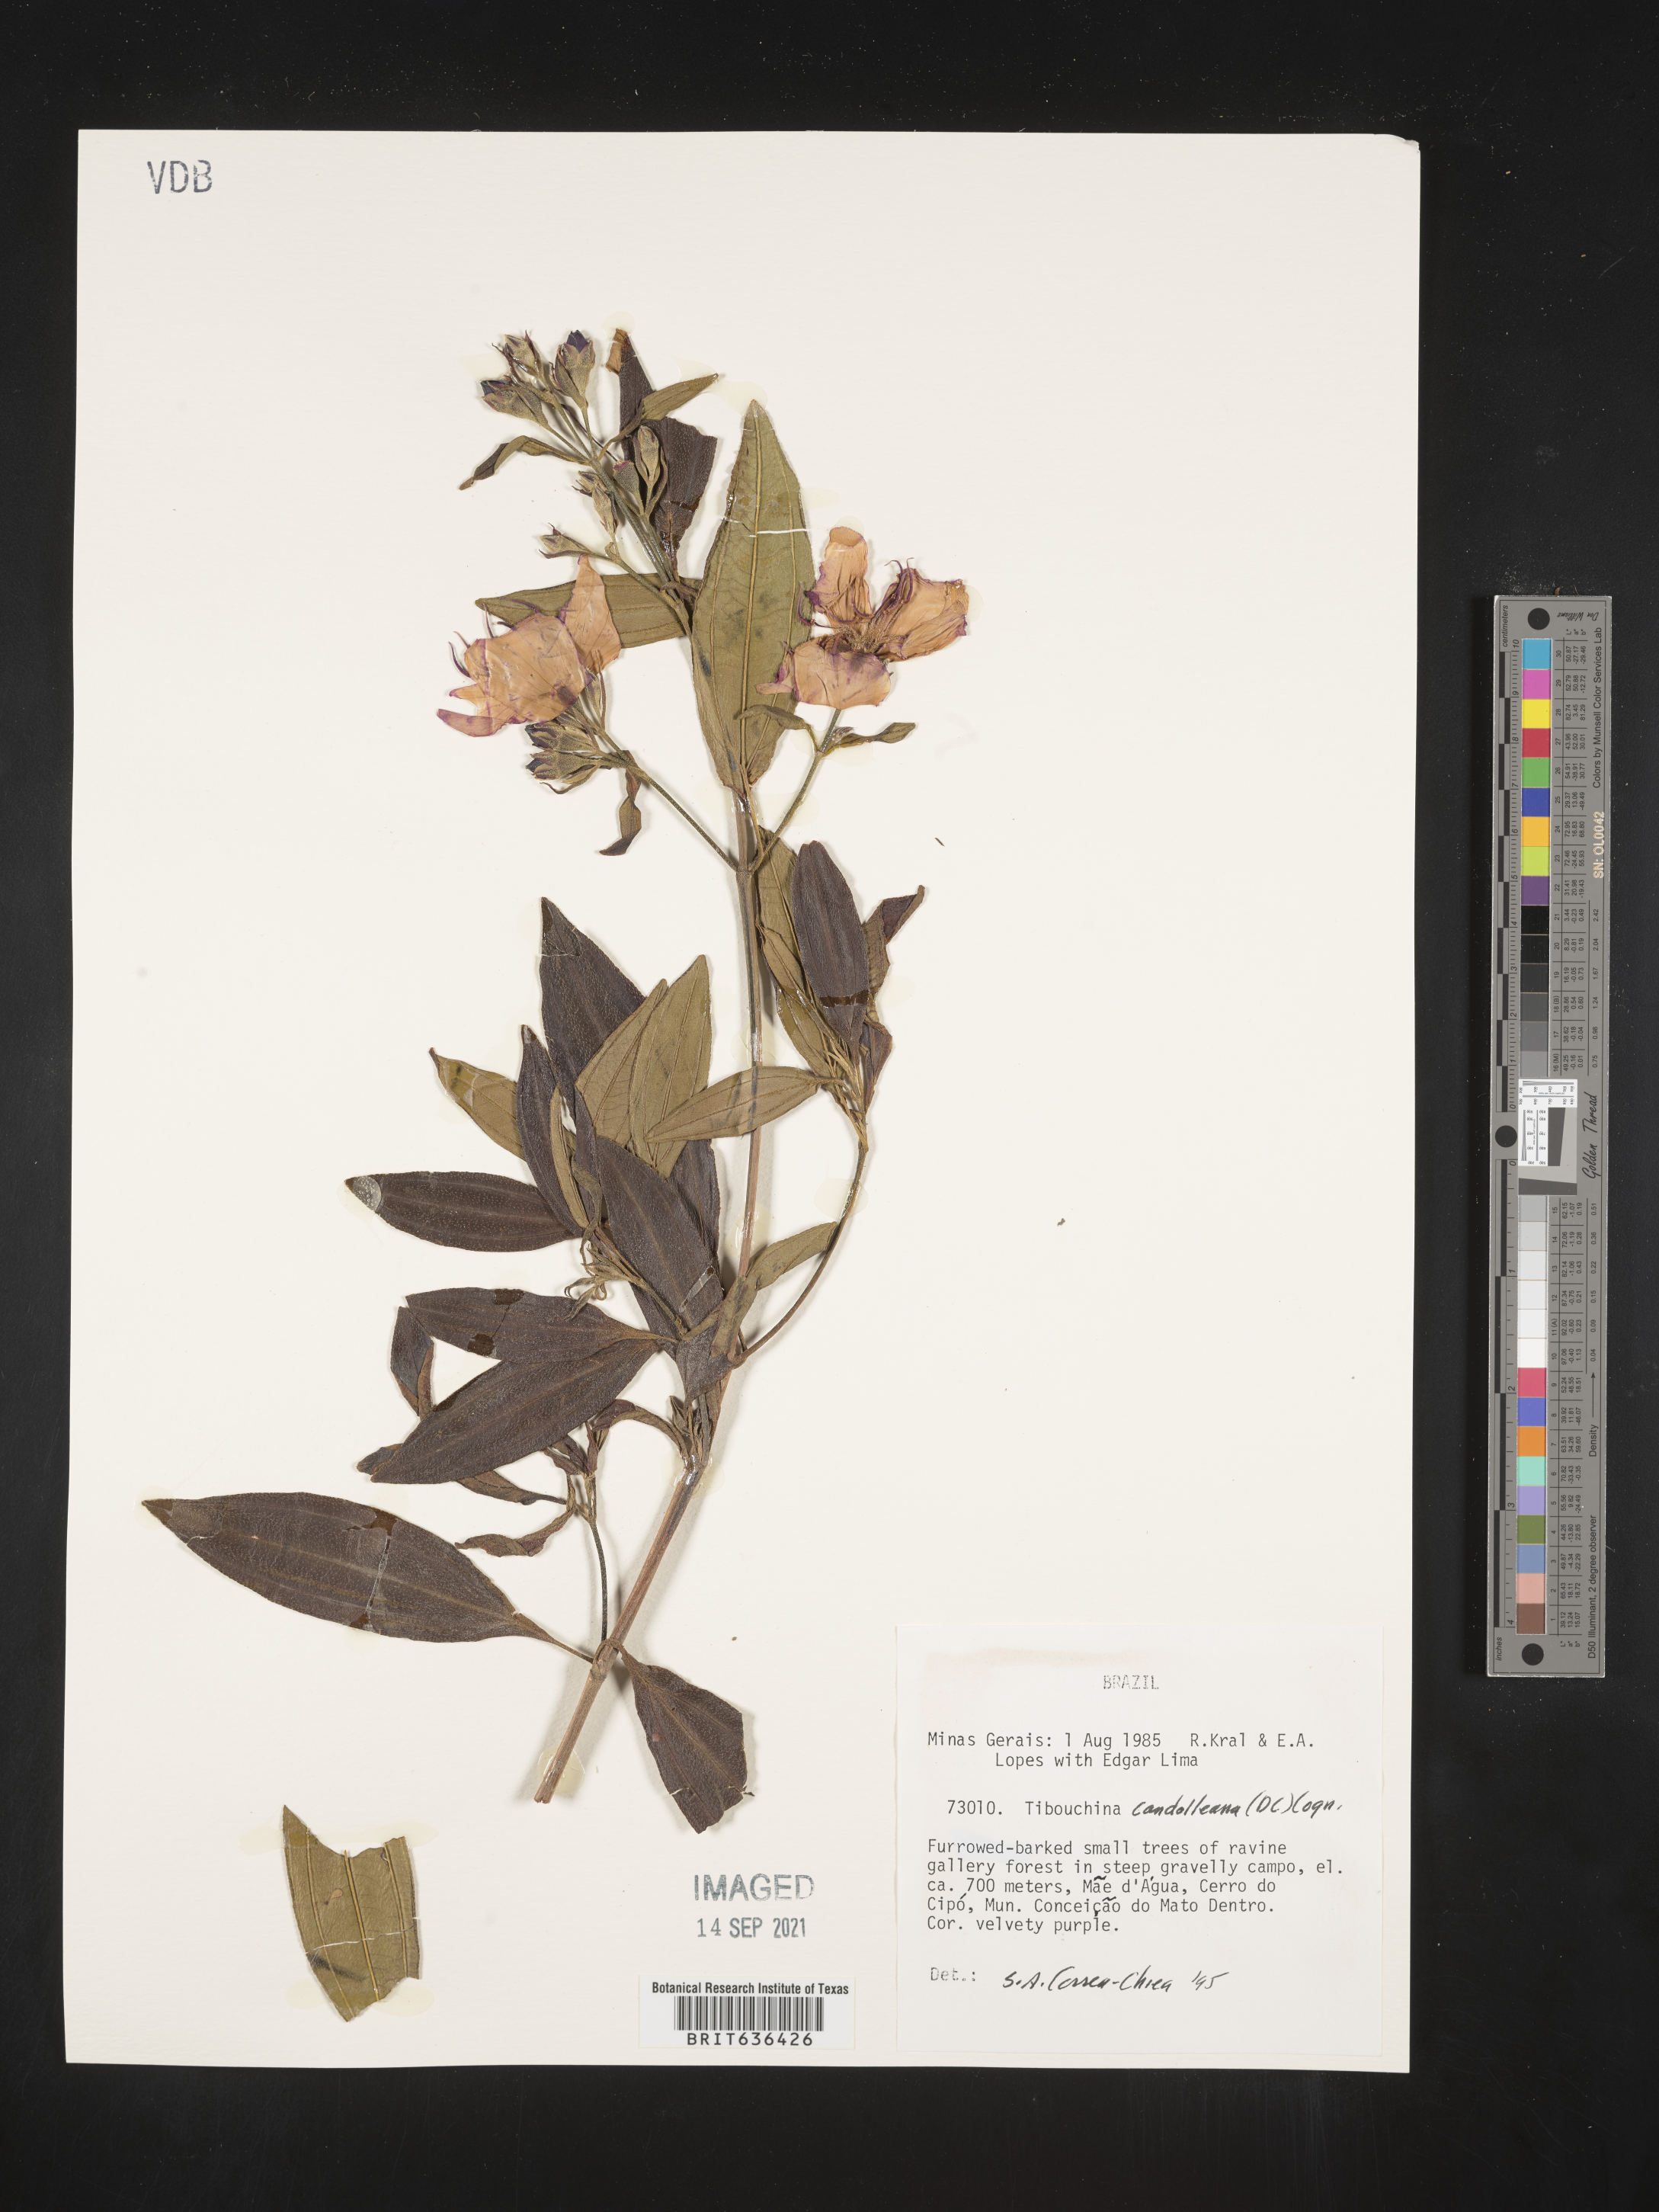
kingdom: Plantae
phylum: Tracheophyta
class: Magnoliopsida
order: Myrtales
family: Melastomataceae
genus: Tibouchina
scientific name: Tibouchina
